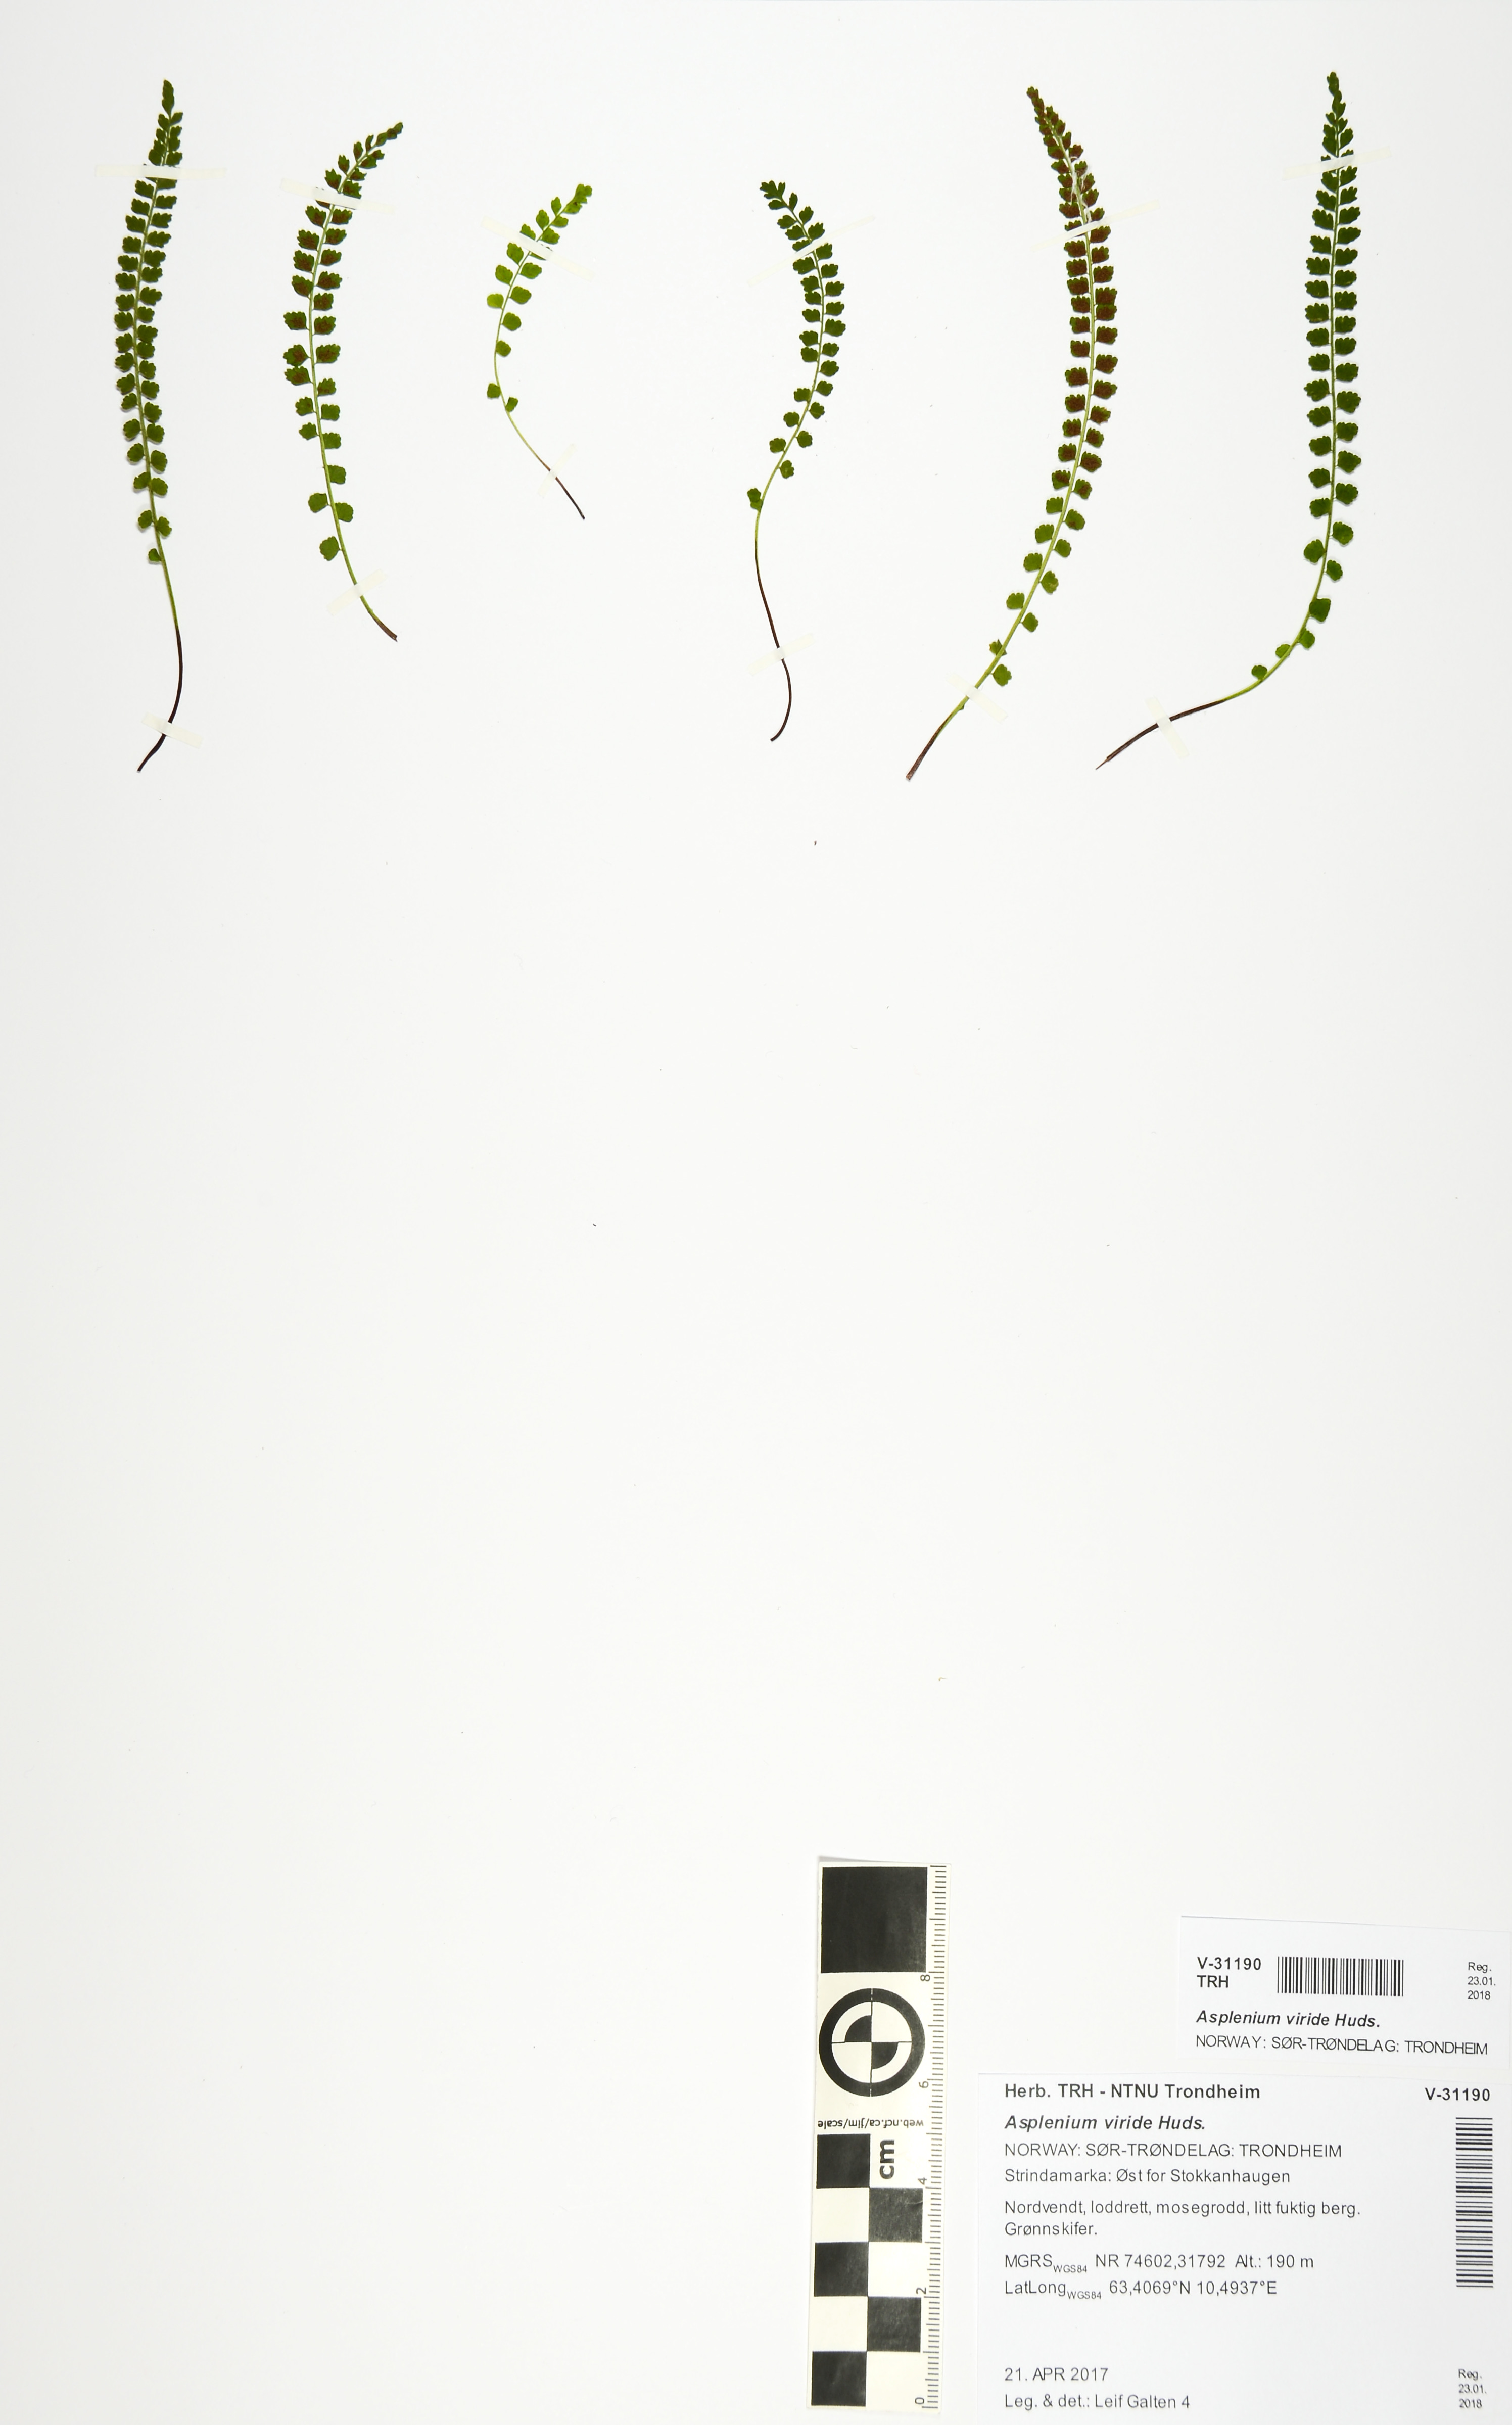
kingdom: Plantae
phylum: Tracheophyta
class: Polypodiopsida
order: Polypodiales
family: Aspleniaceae
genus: Asplenium
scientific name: Asplenium viride
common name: Green spleenwort
